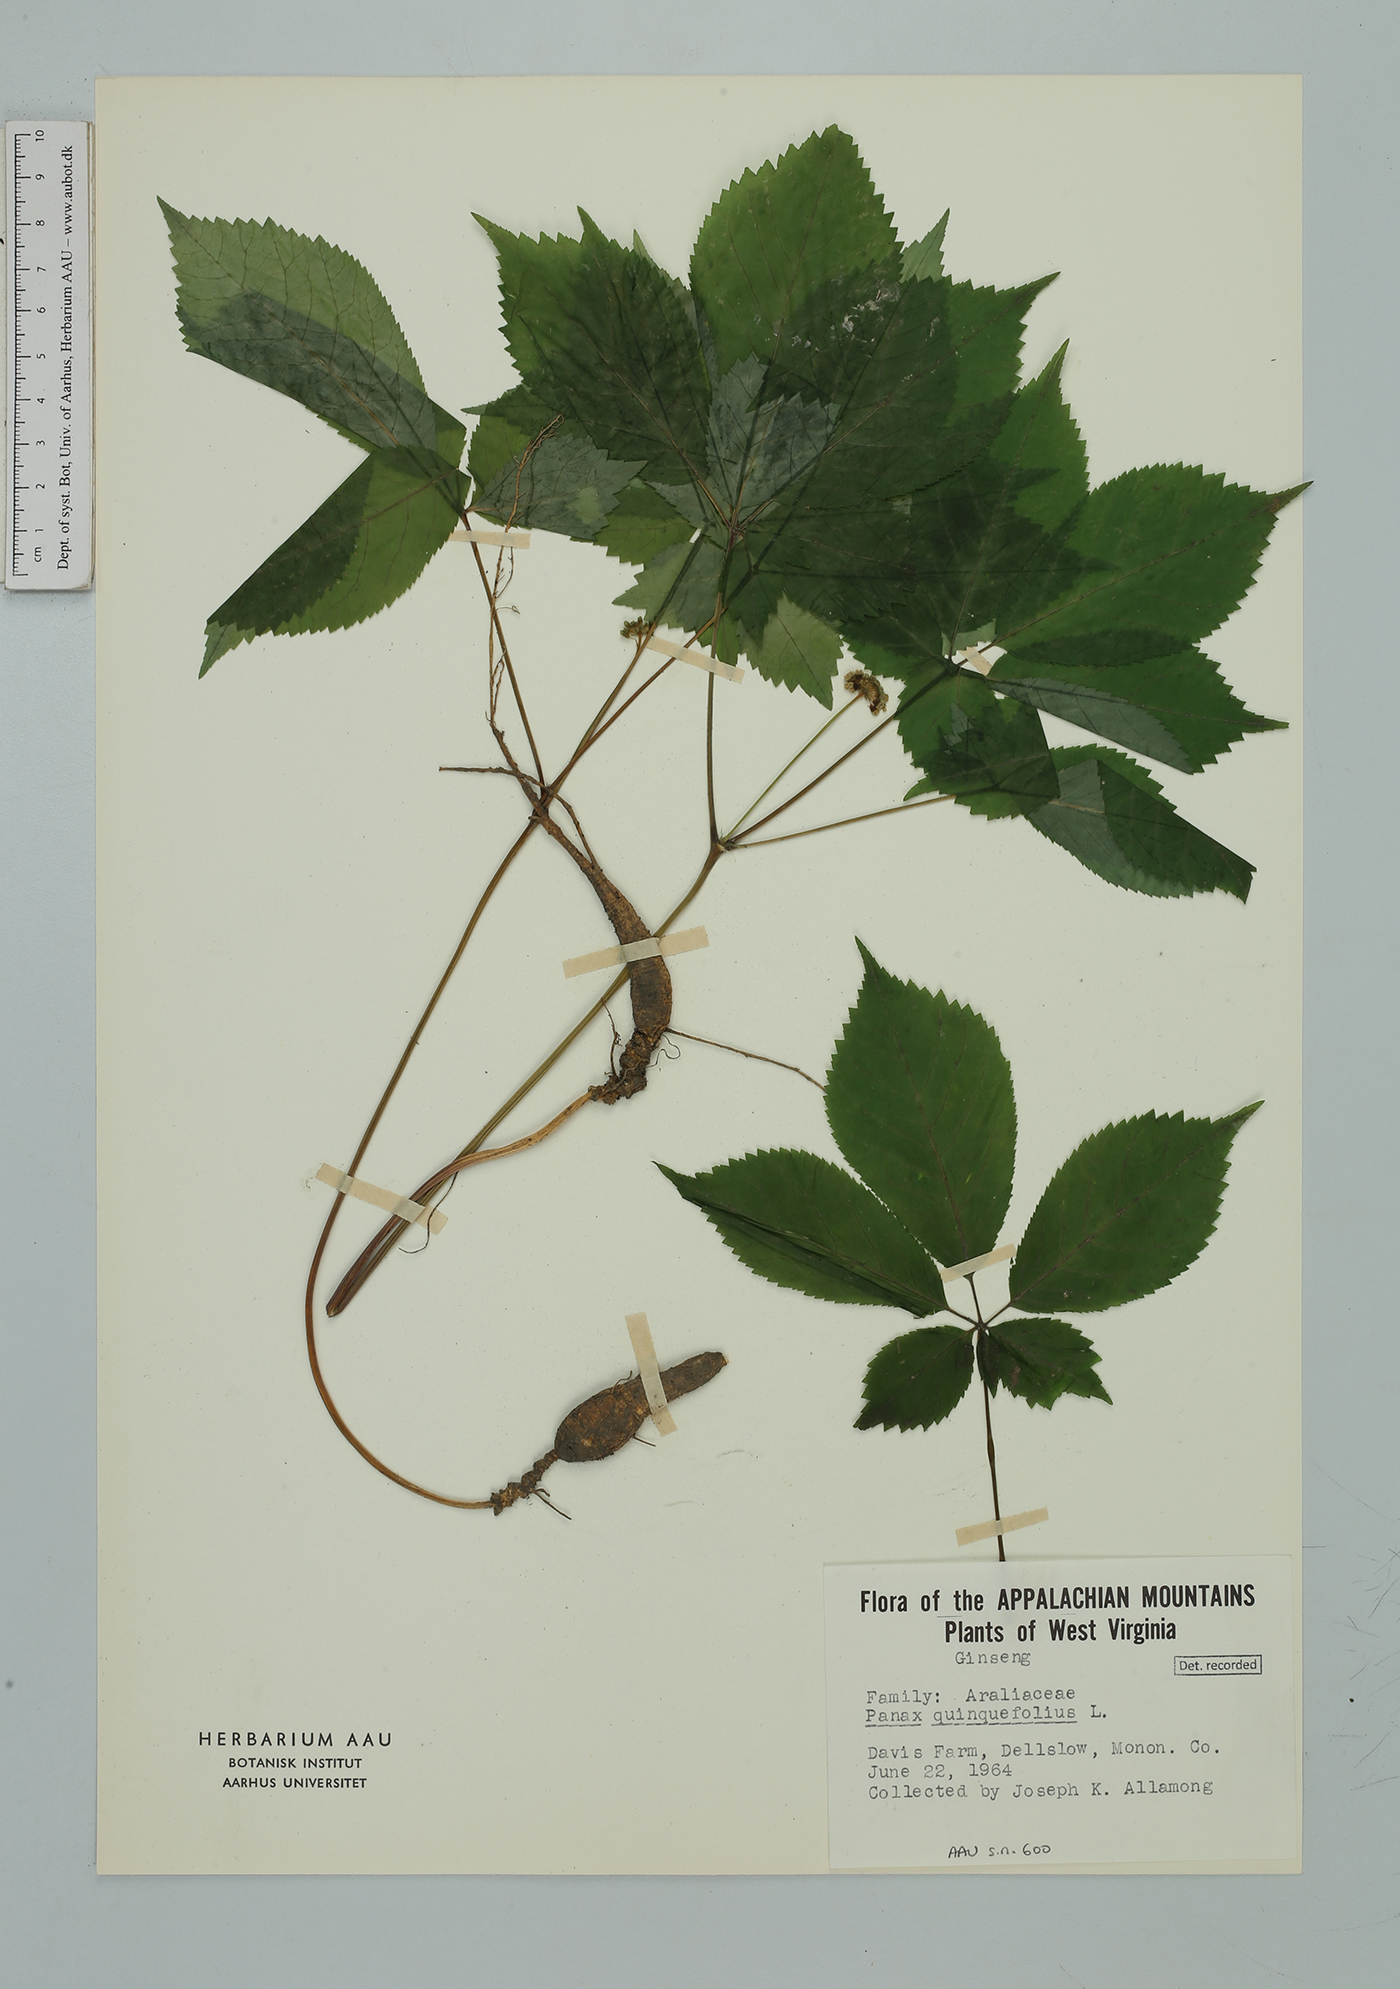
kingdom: Plantae
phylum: Tracheophyta
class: Magnoliopsida
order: Apiales
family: Araliaceae
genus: Panax
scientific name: Panax quinquefolius
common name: American ginseng
